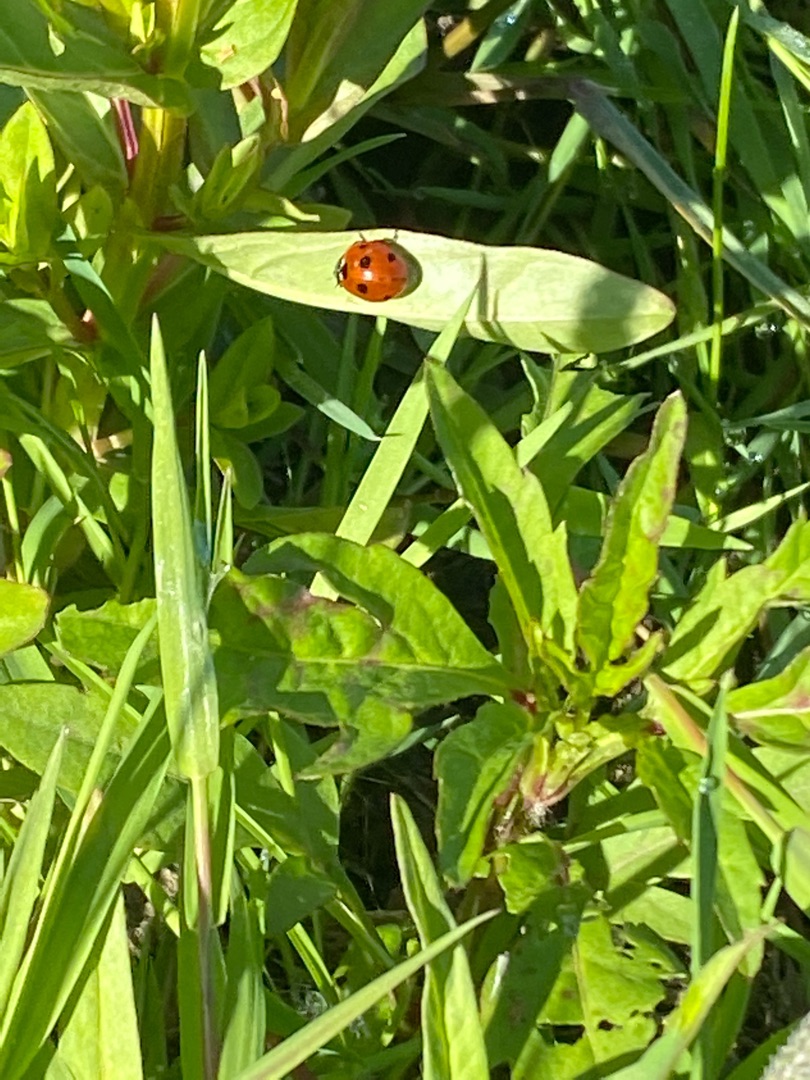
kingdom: Animalia
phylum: Arthropoda
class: Insecta
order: Coleoptera
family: Coccinellidae
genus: Coccinella
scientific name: Coccinella septempunctata
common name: Syvplettet mariehøne
